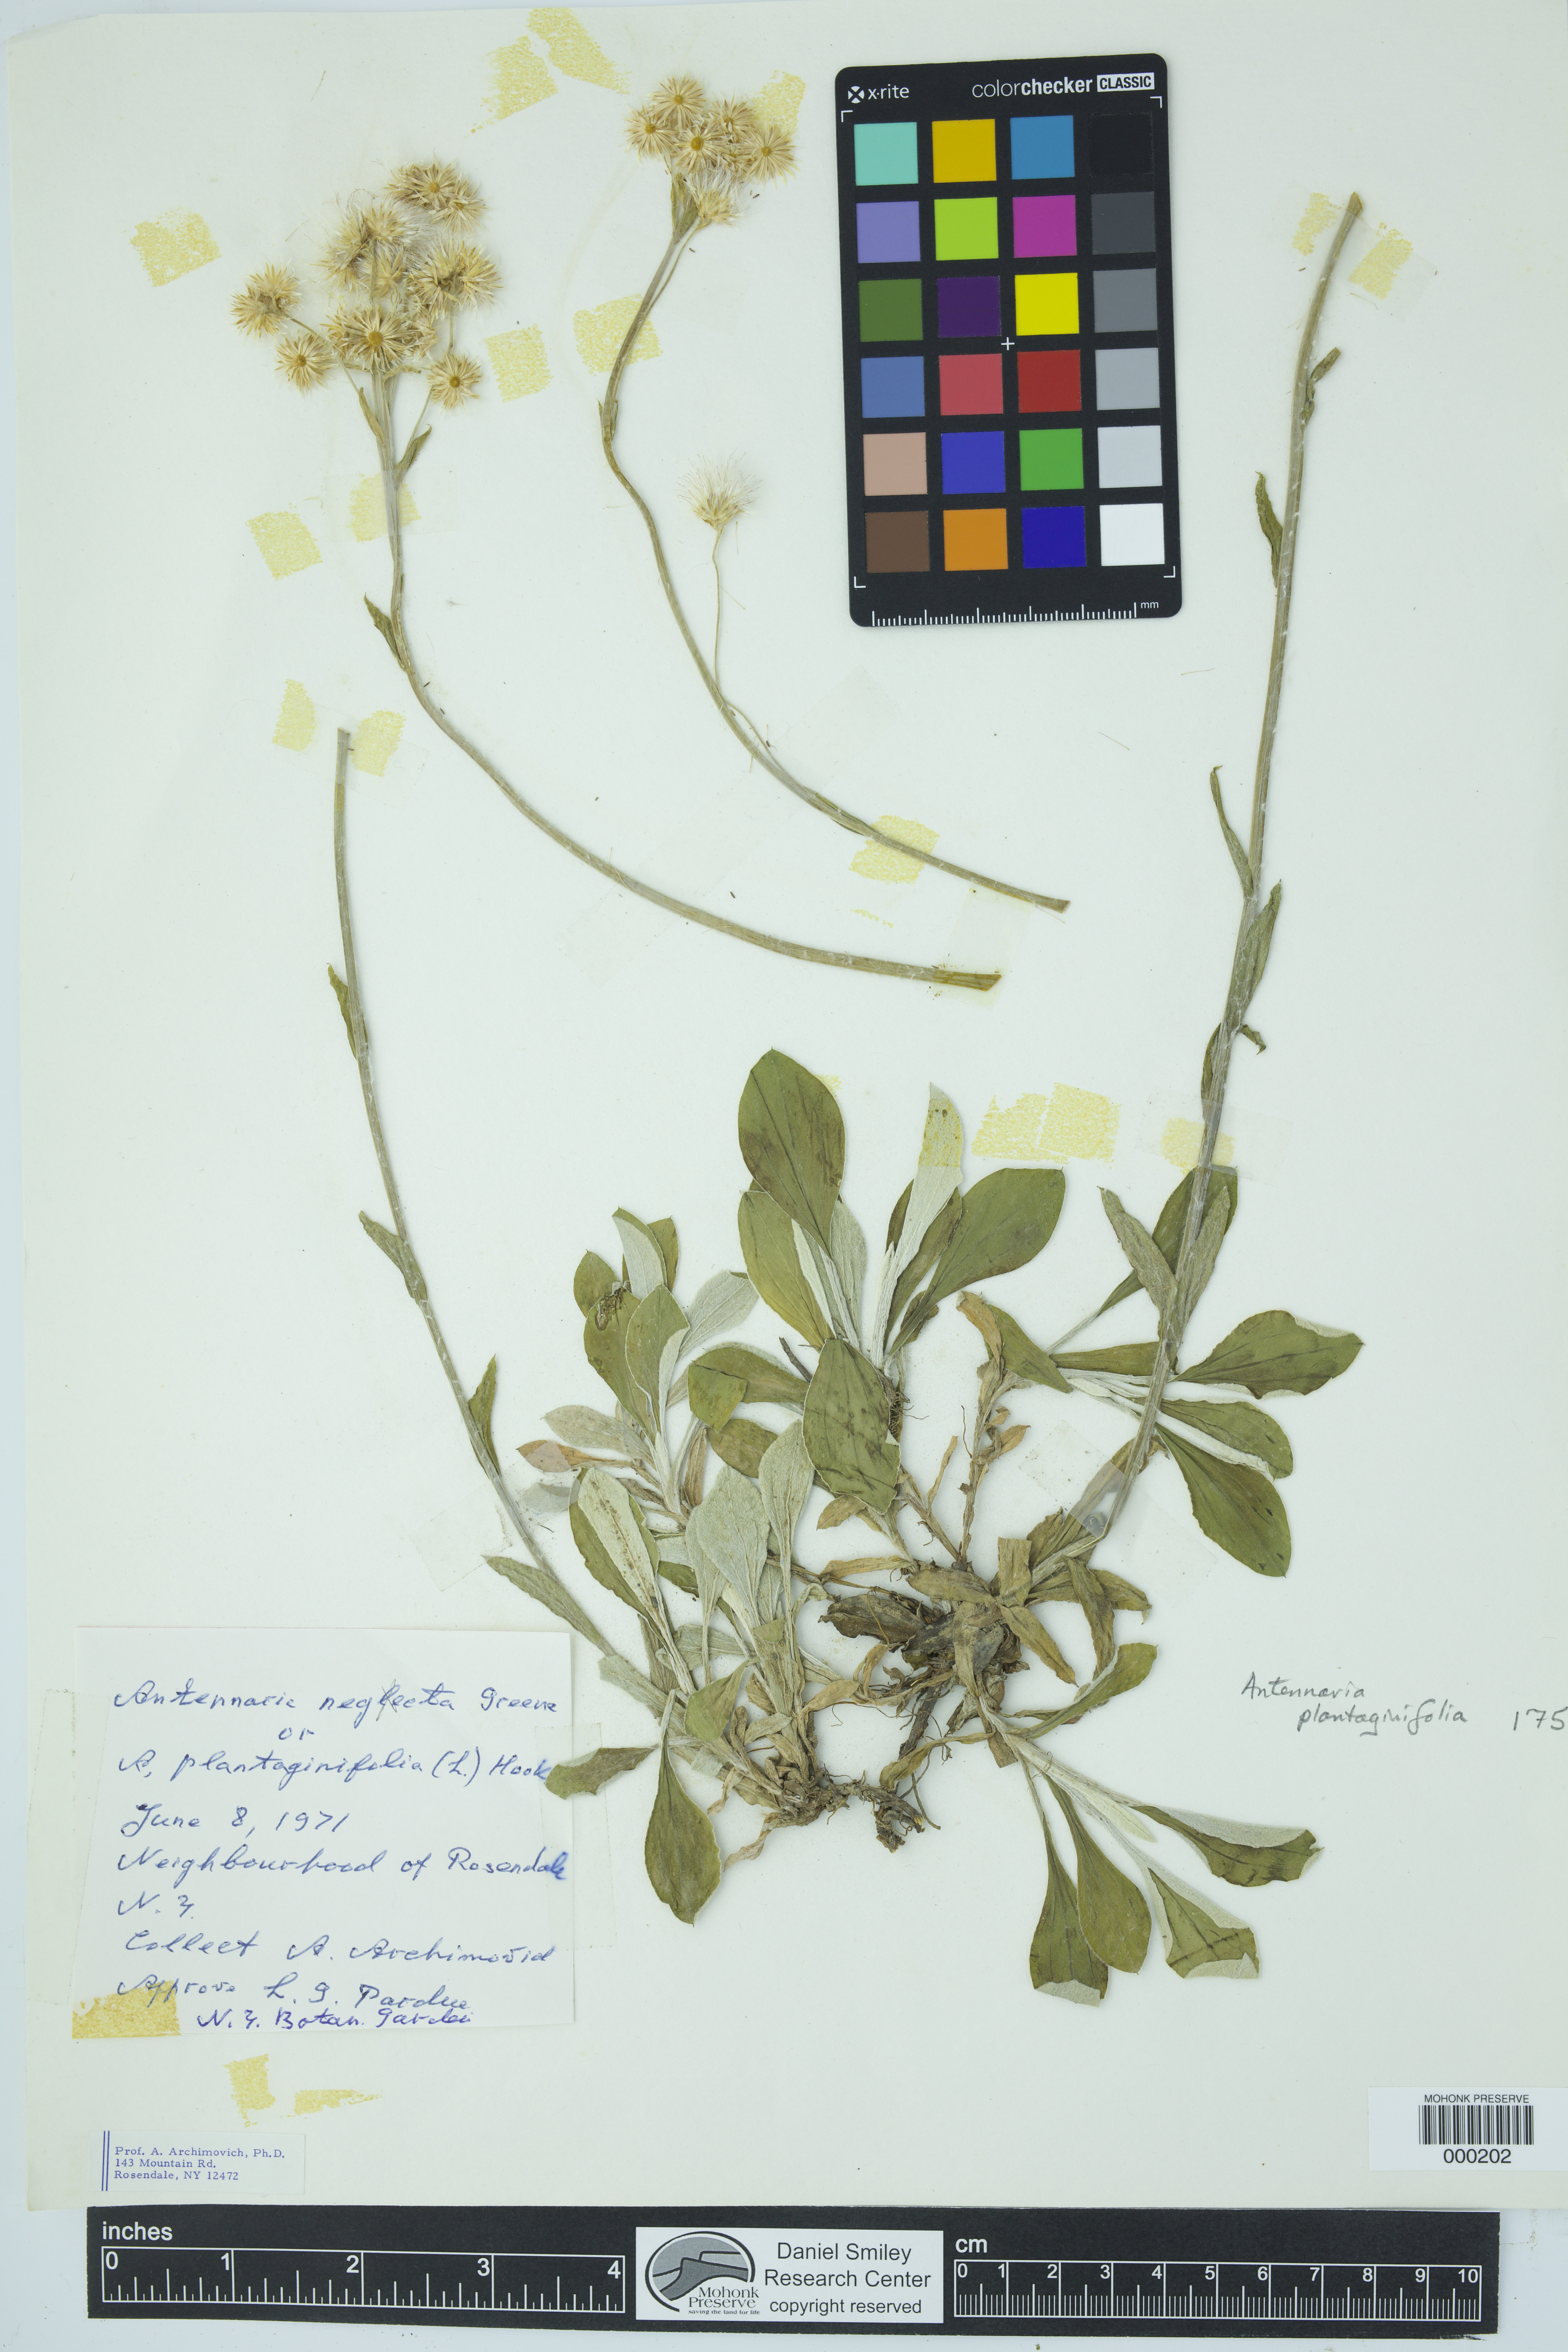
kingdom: Plantae
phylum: Tracheophyta
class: Magnoliopsida
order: Asterales
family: Asteraceae
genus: Antennaria
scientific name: Antennaria plantaginifolia
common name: Plantain-leaved pussytoes
